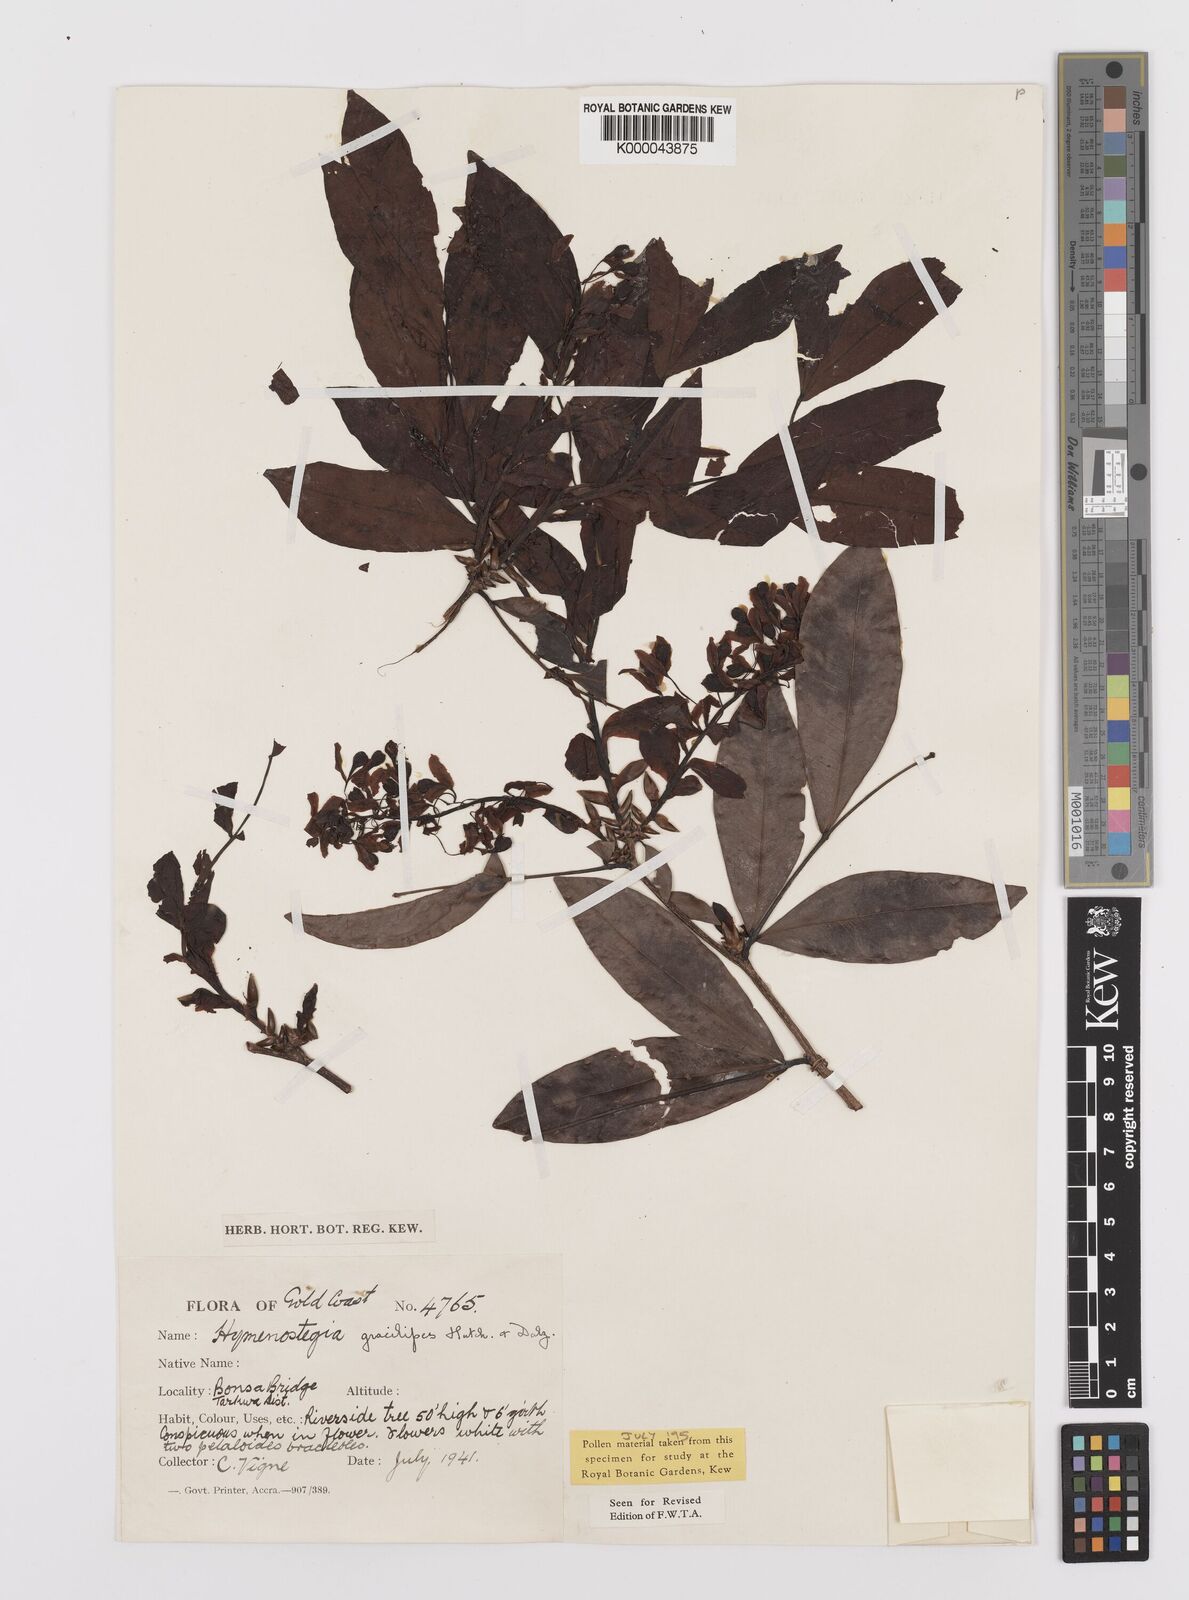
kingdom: Plantae
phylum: Tracheophyta
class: Magnoliopsida
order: Fabales
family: Fabaceae
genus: Hymenostegia
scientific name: Hymenostegia gracilipes
